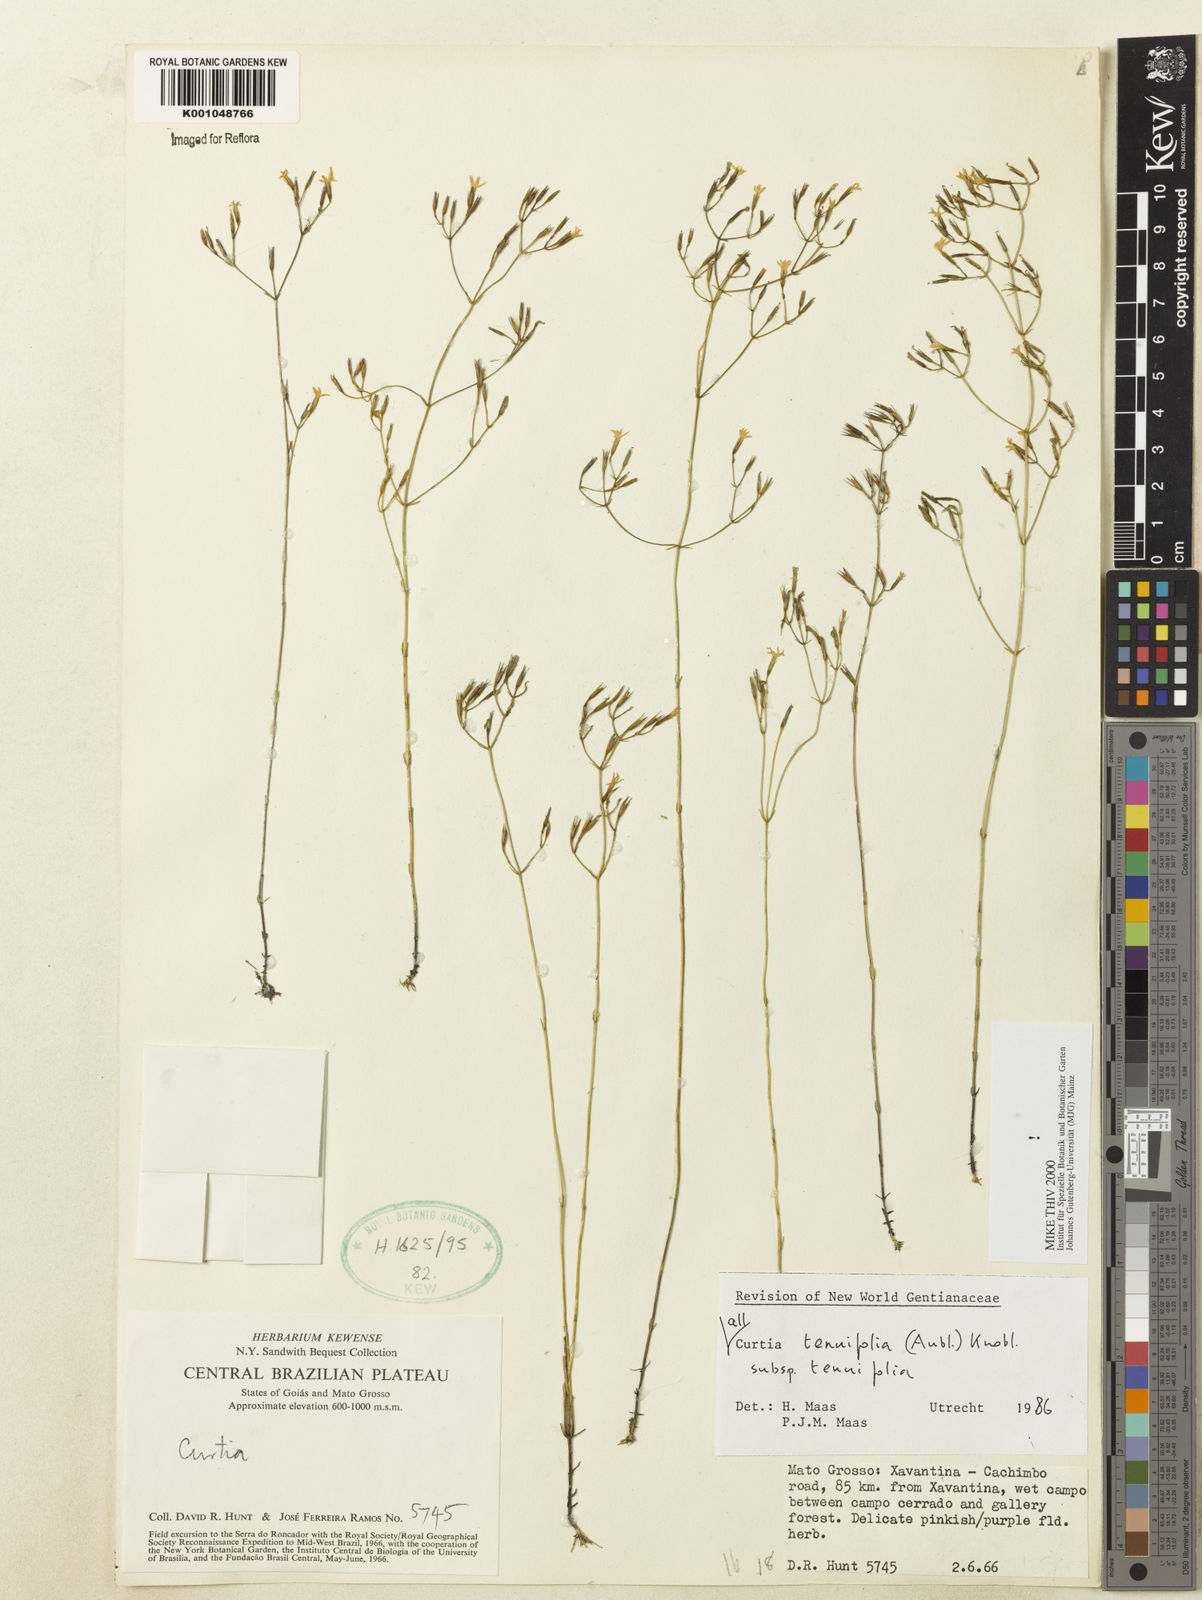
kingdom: Plantae
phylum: Tracheophyta
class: Magnoliopsida
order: Gentianales
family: Gentianaceae
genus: Curtia
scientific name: Curtia tenuifolia
